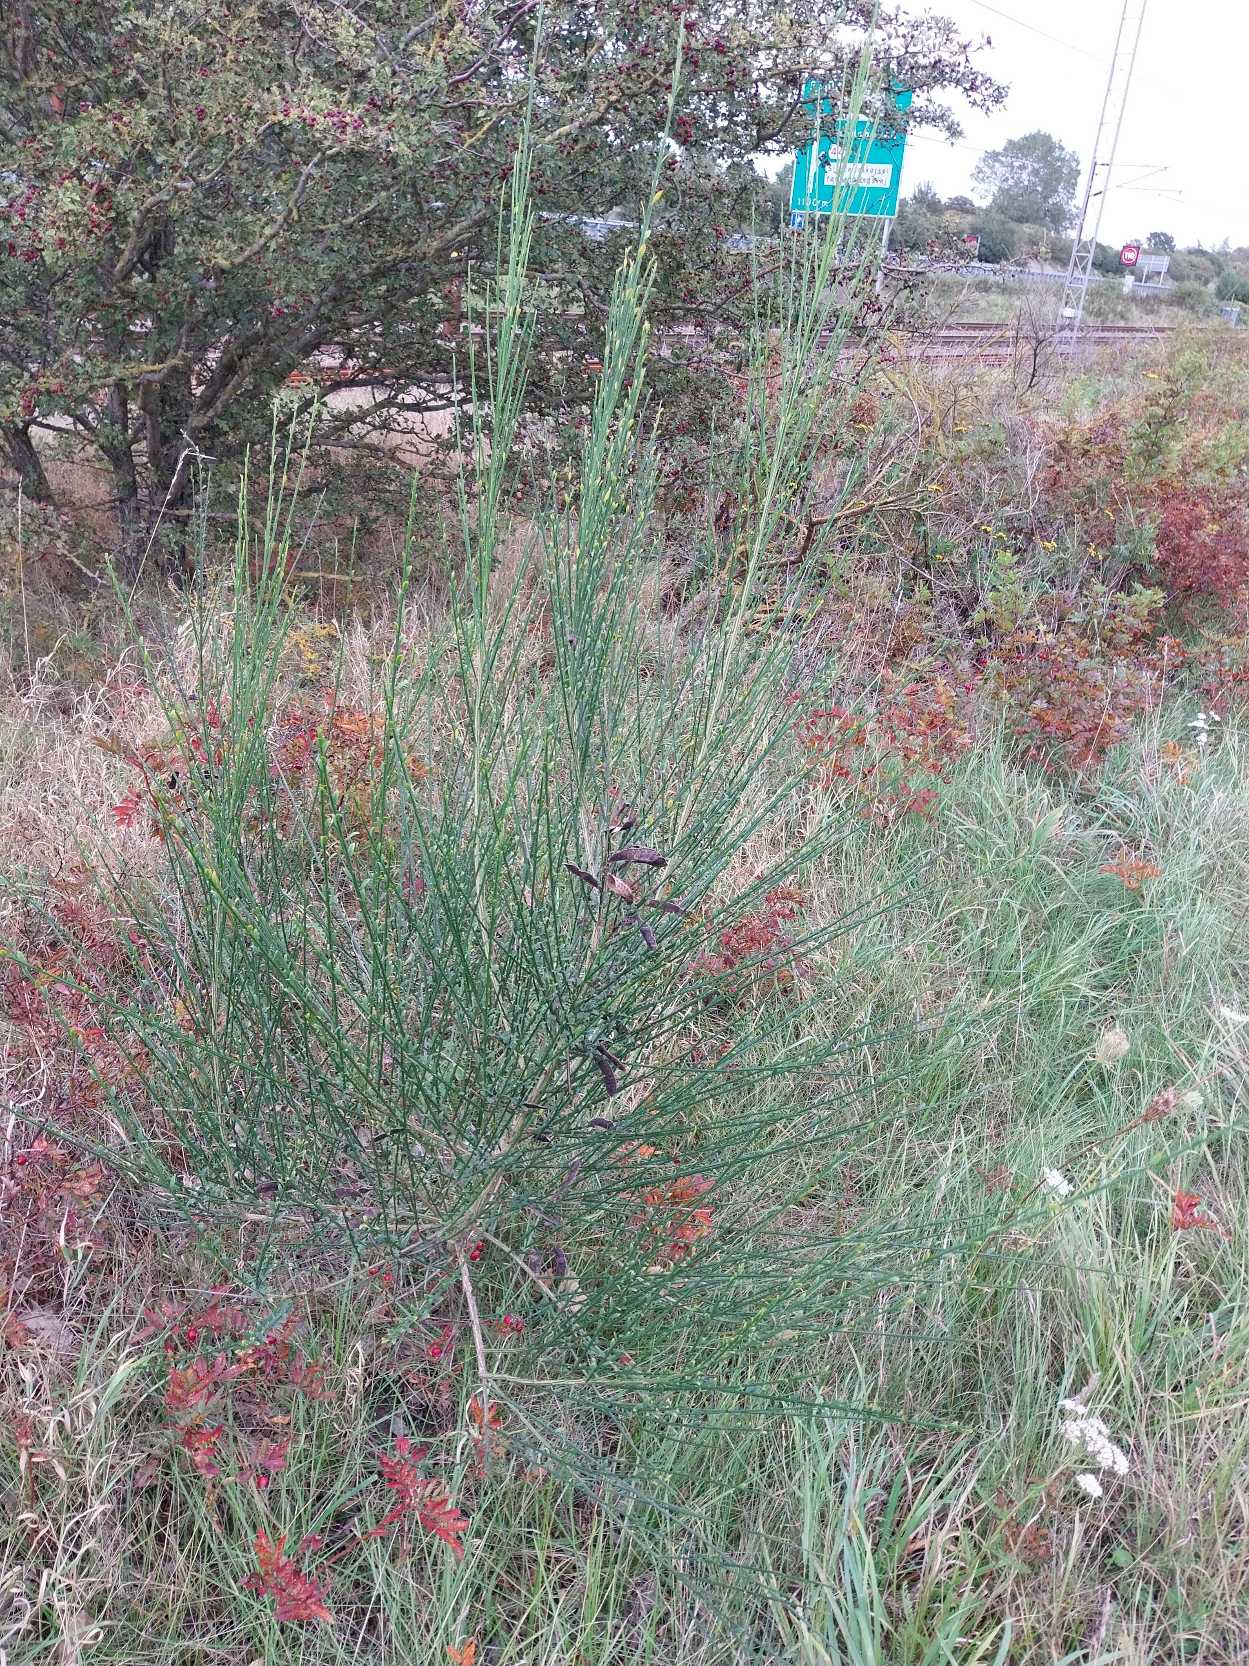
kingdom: Plantae
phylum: Tracheophyta
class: Magnoliopsida
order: Fabales
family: Fabaceae
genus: Cytisus
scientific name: Cytisus scoparius
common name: Almindelig gyvel
